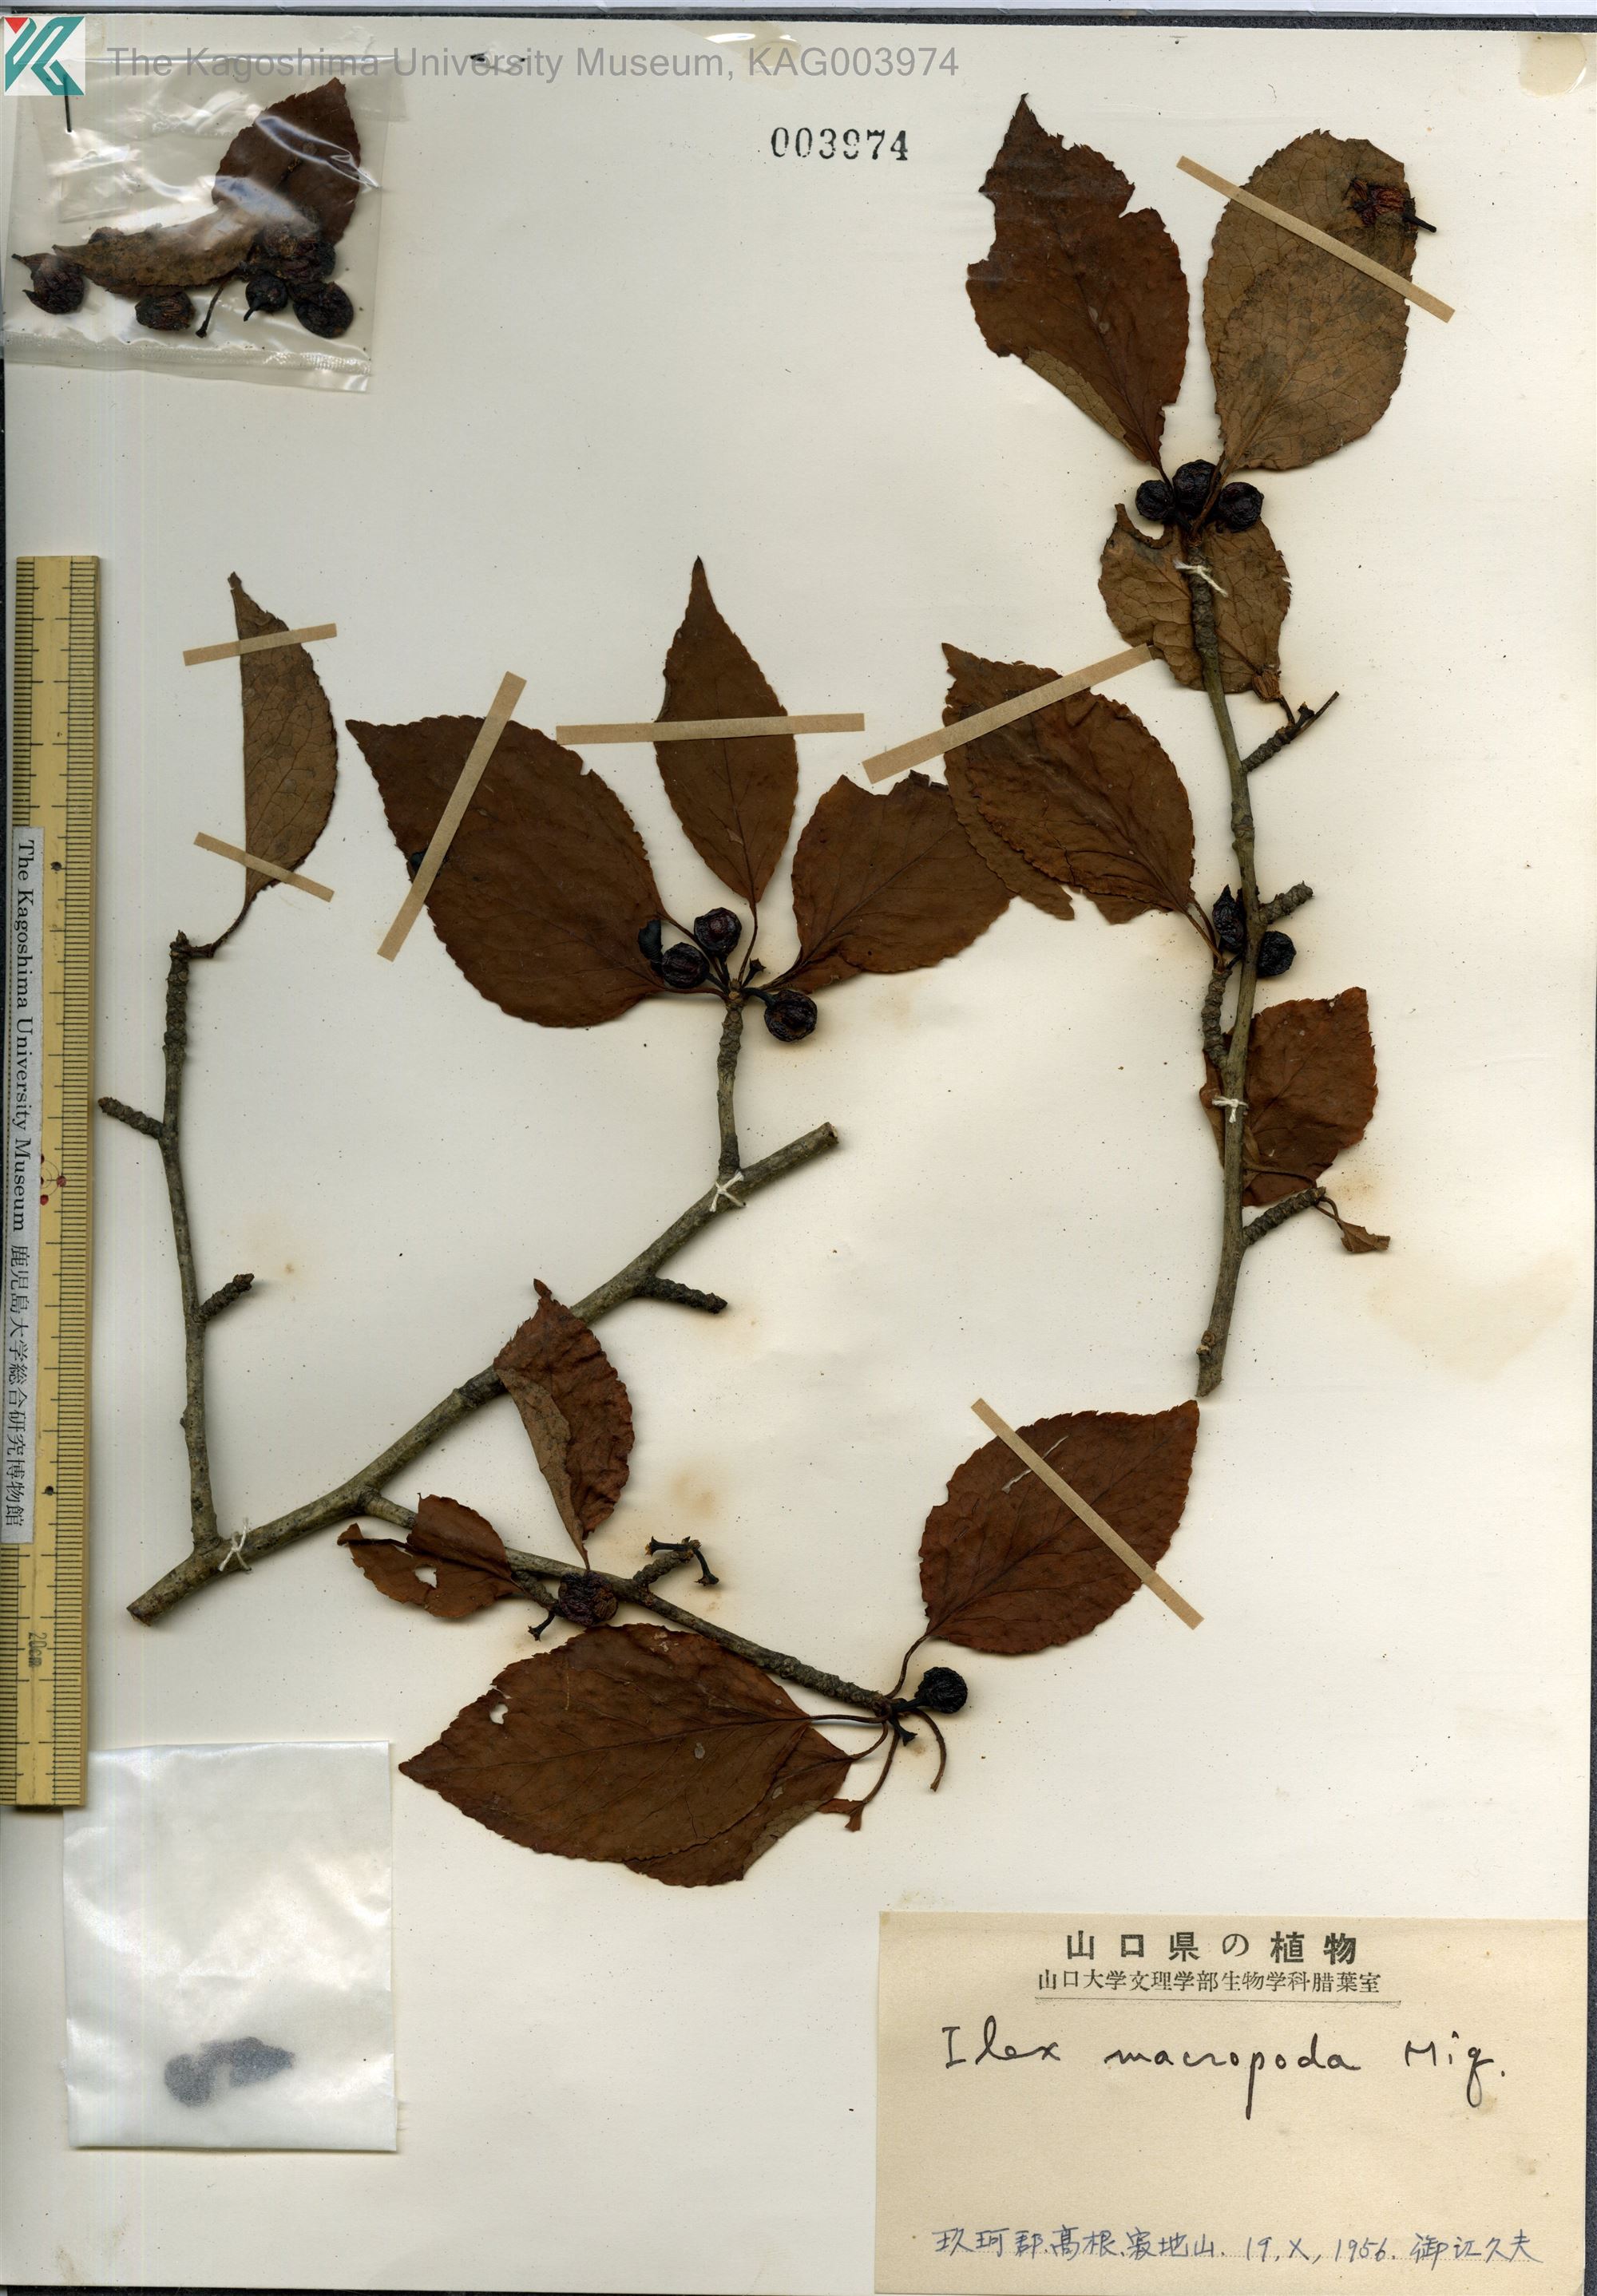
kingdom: Plantae
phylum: Tracheophyta
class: Magnoliopsida
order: Aquifoliales
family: Aquifoliaceae
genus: Ilex
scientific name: Ilex macropoda
